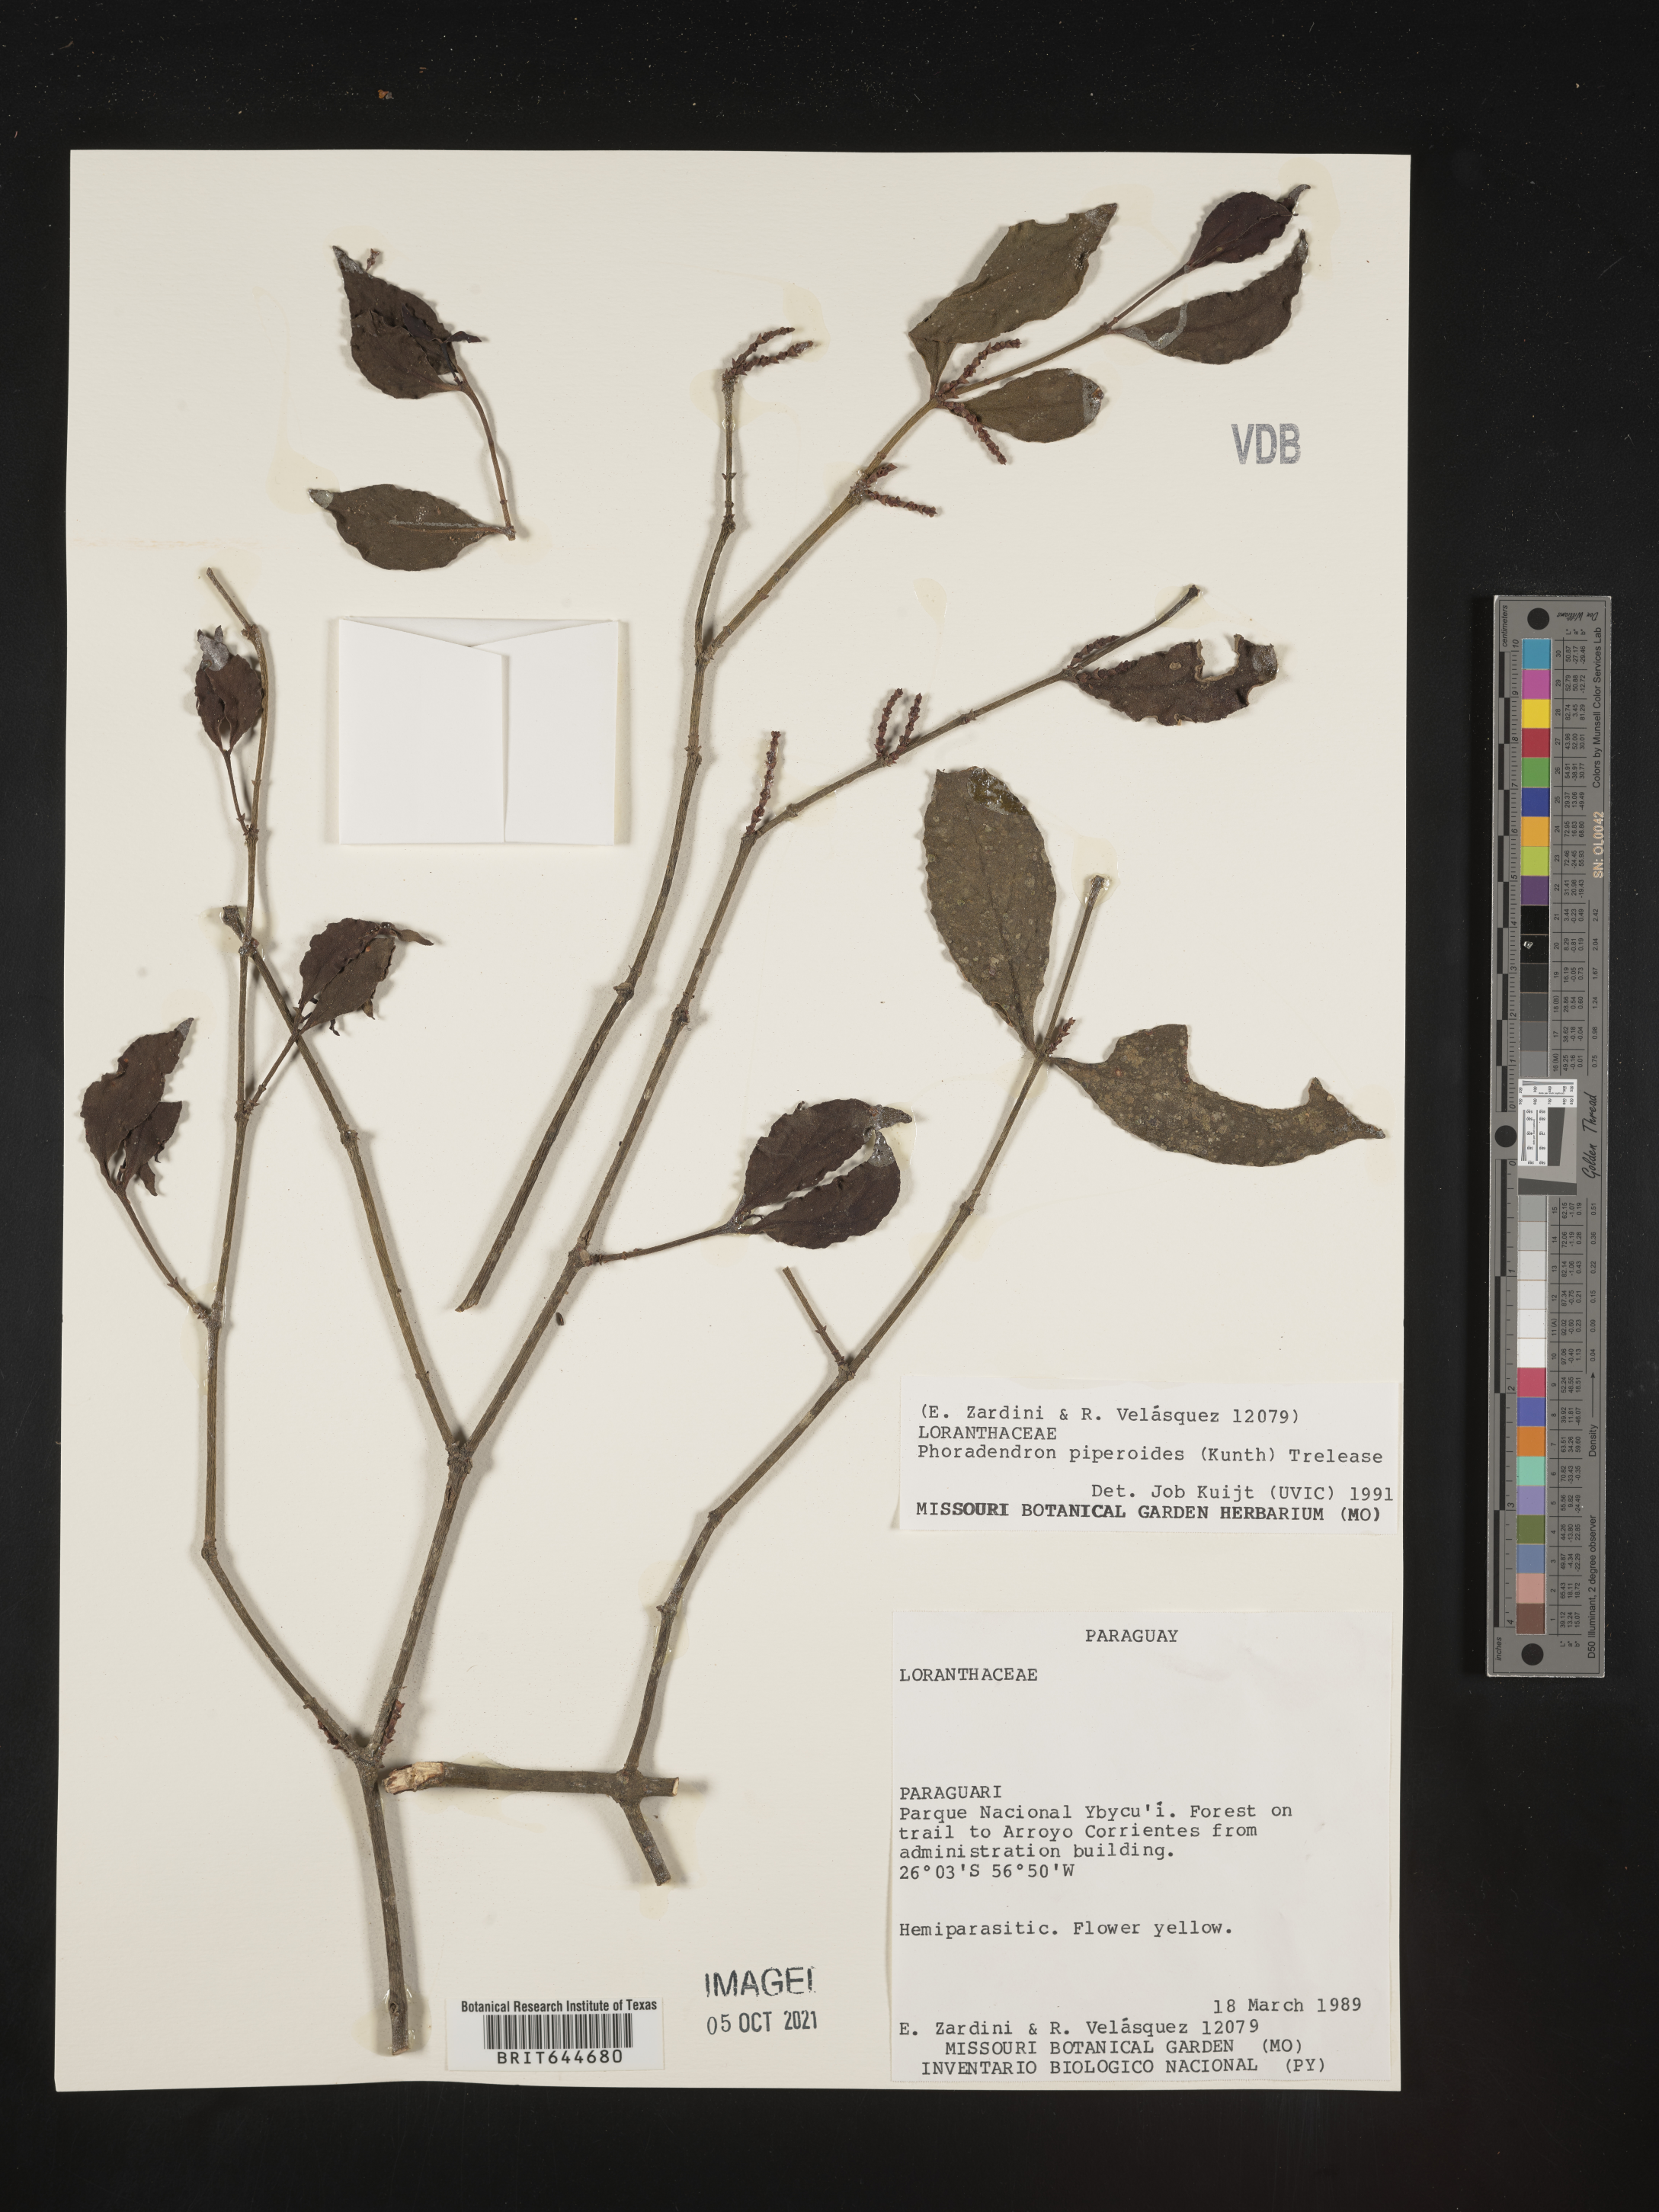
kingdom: Plantae
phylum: Tracheophyta
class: Magnoliopsida
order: Santalales
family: Viscaceae
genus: Phoradendron
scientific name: Phoradendron
